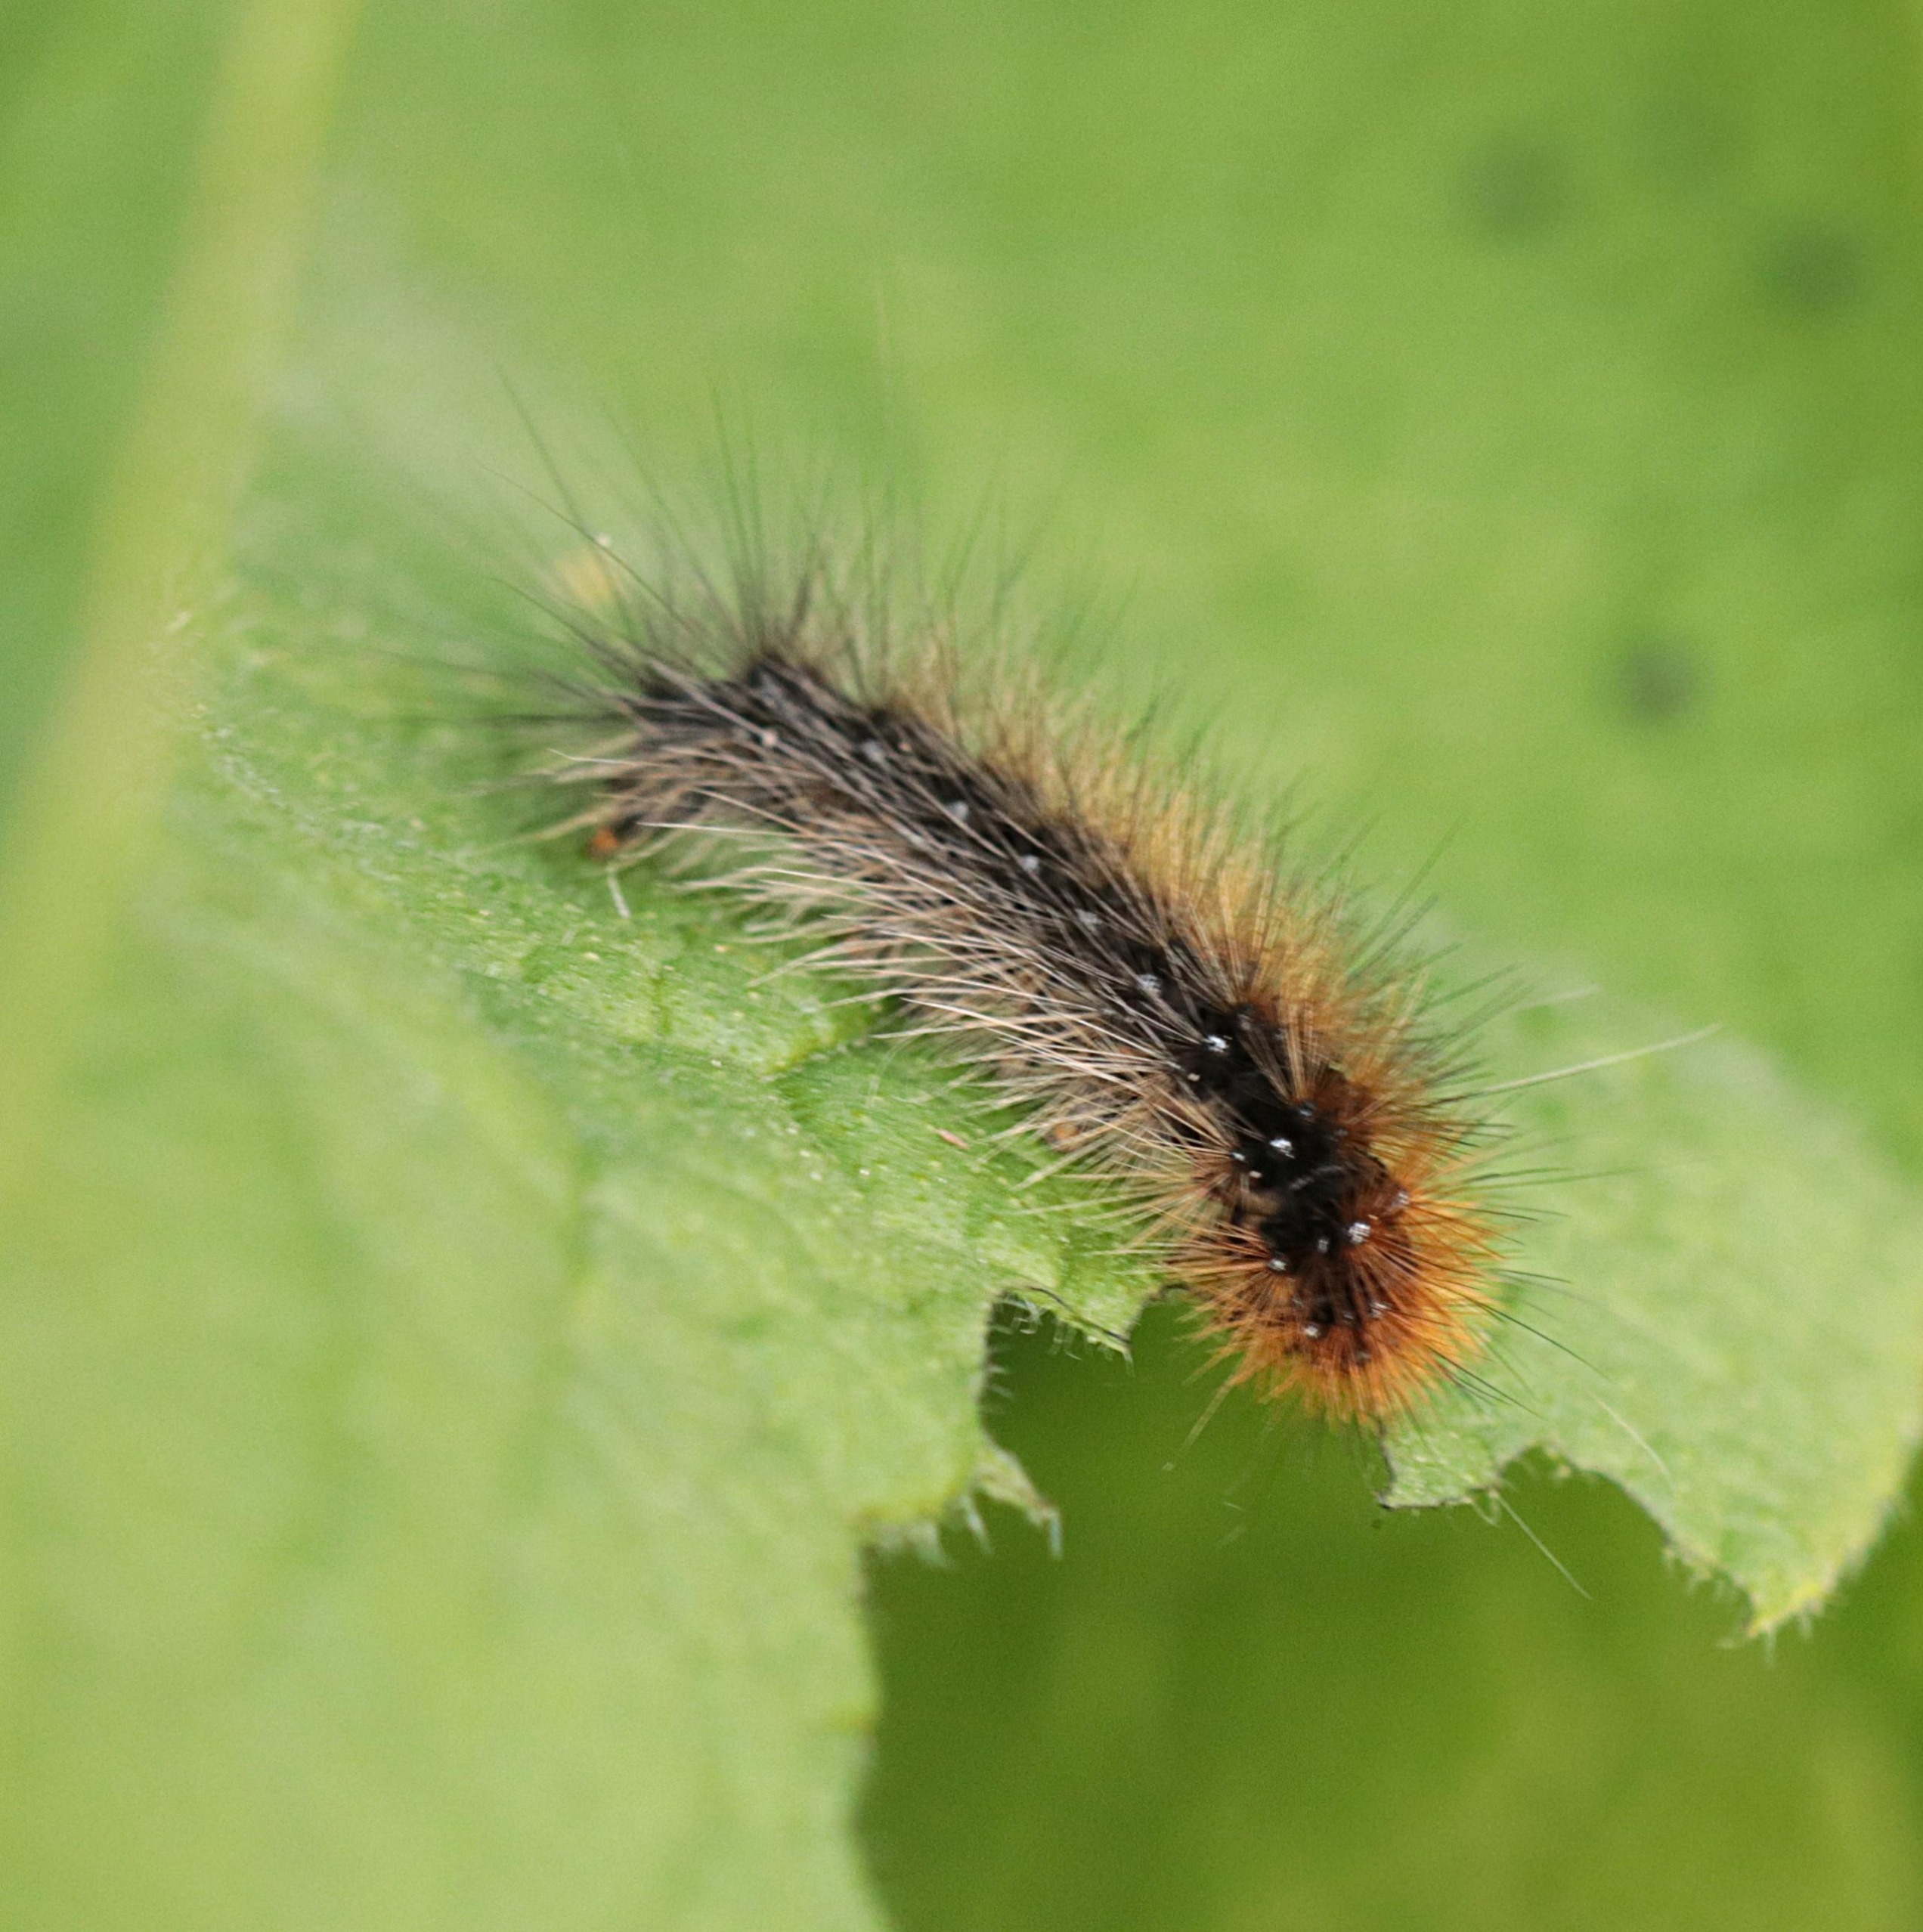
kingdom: Animalia
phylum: Arthropoda
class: Insecta
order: Lepidoptera
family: Erebidae
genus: Arctia
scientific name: Arctia caja
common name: Brun bjørn
